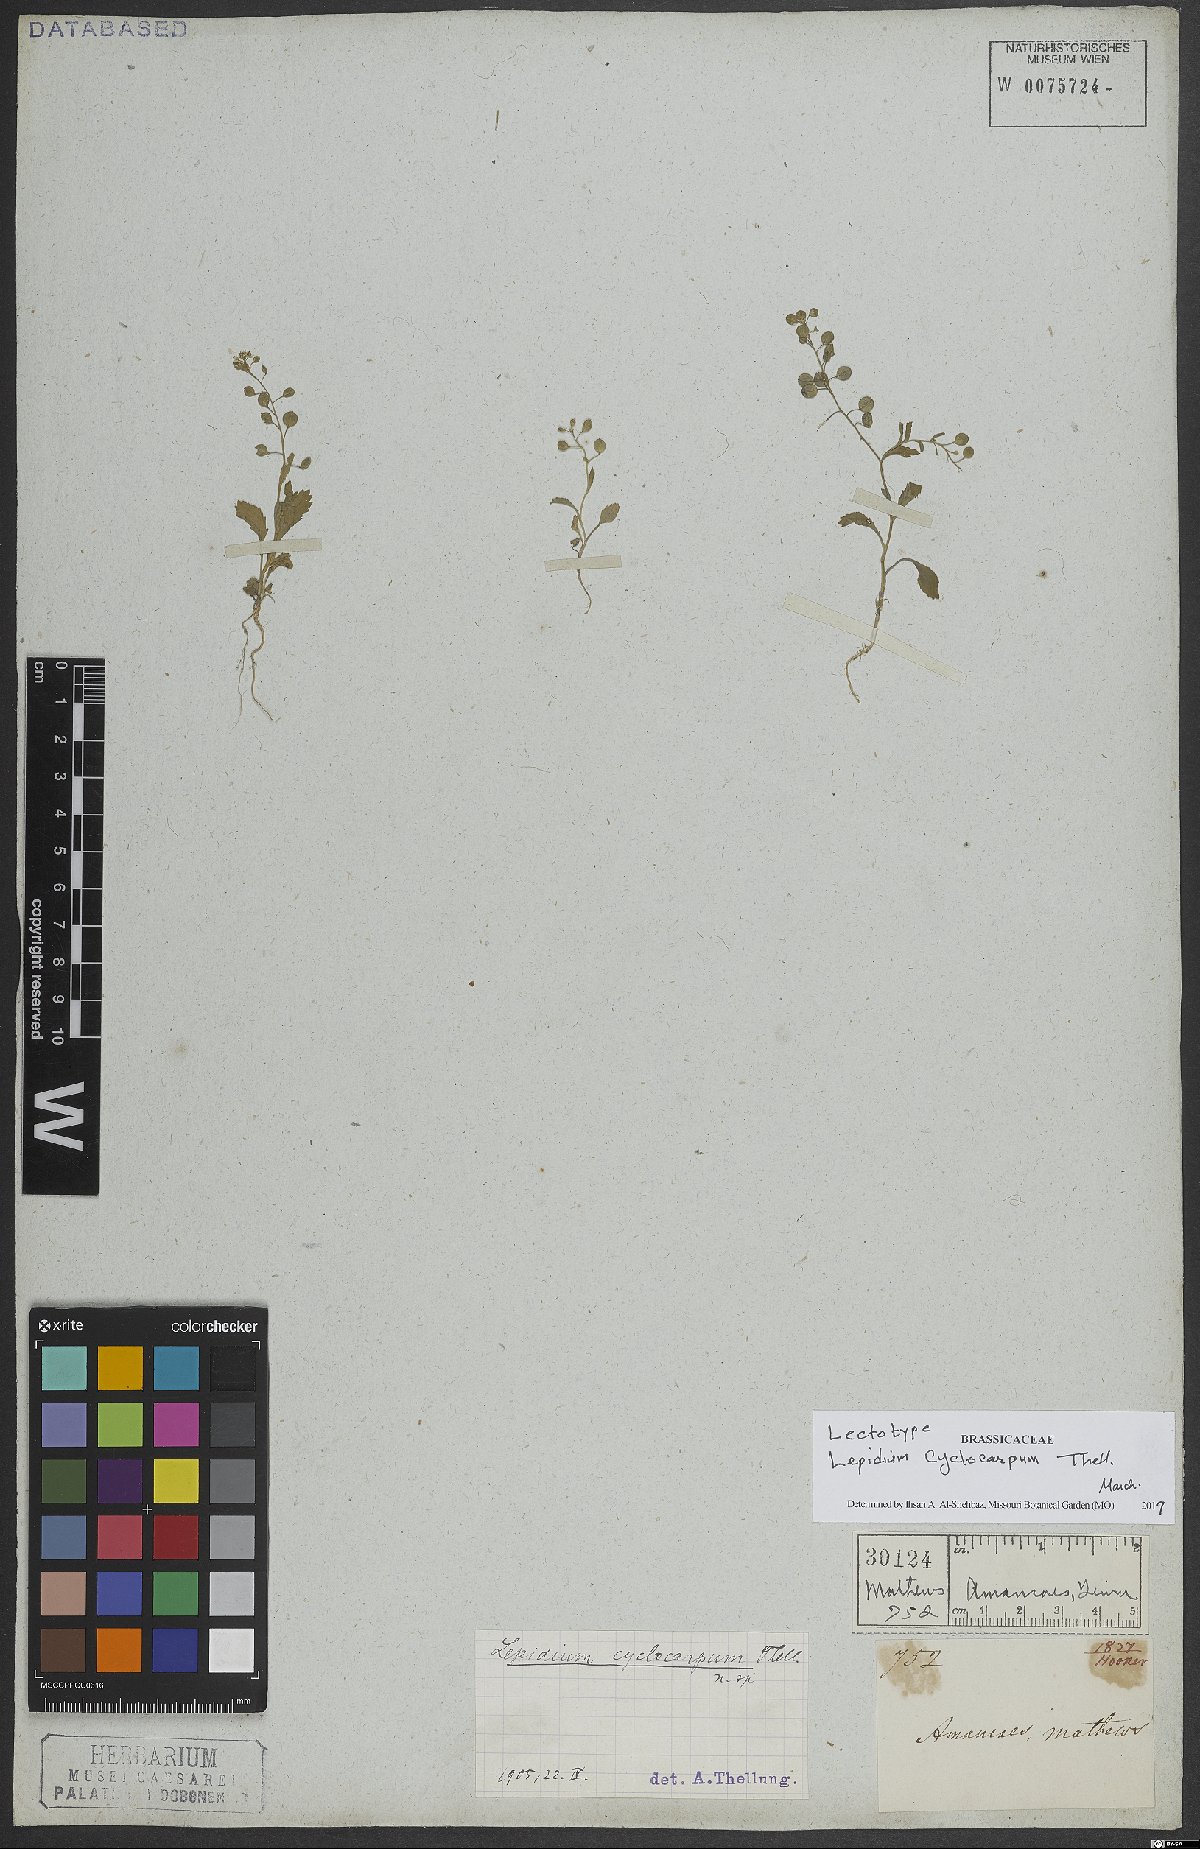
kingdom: Plantae
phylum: Tracheophyta
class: Magnoliopsida
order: Brassicales
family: Brassicaceae
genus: Lepidium
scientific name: Lepidium cyclocarpum
